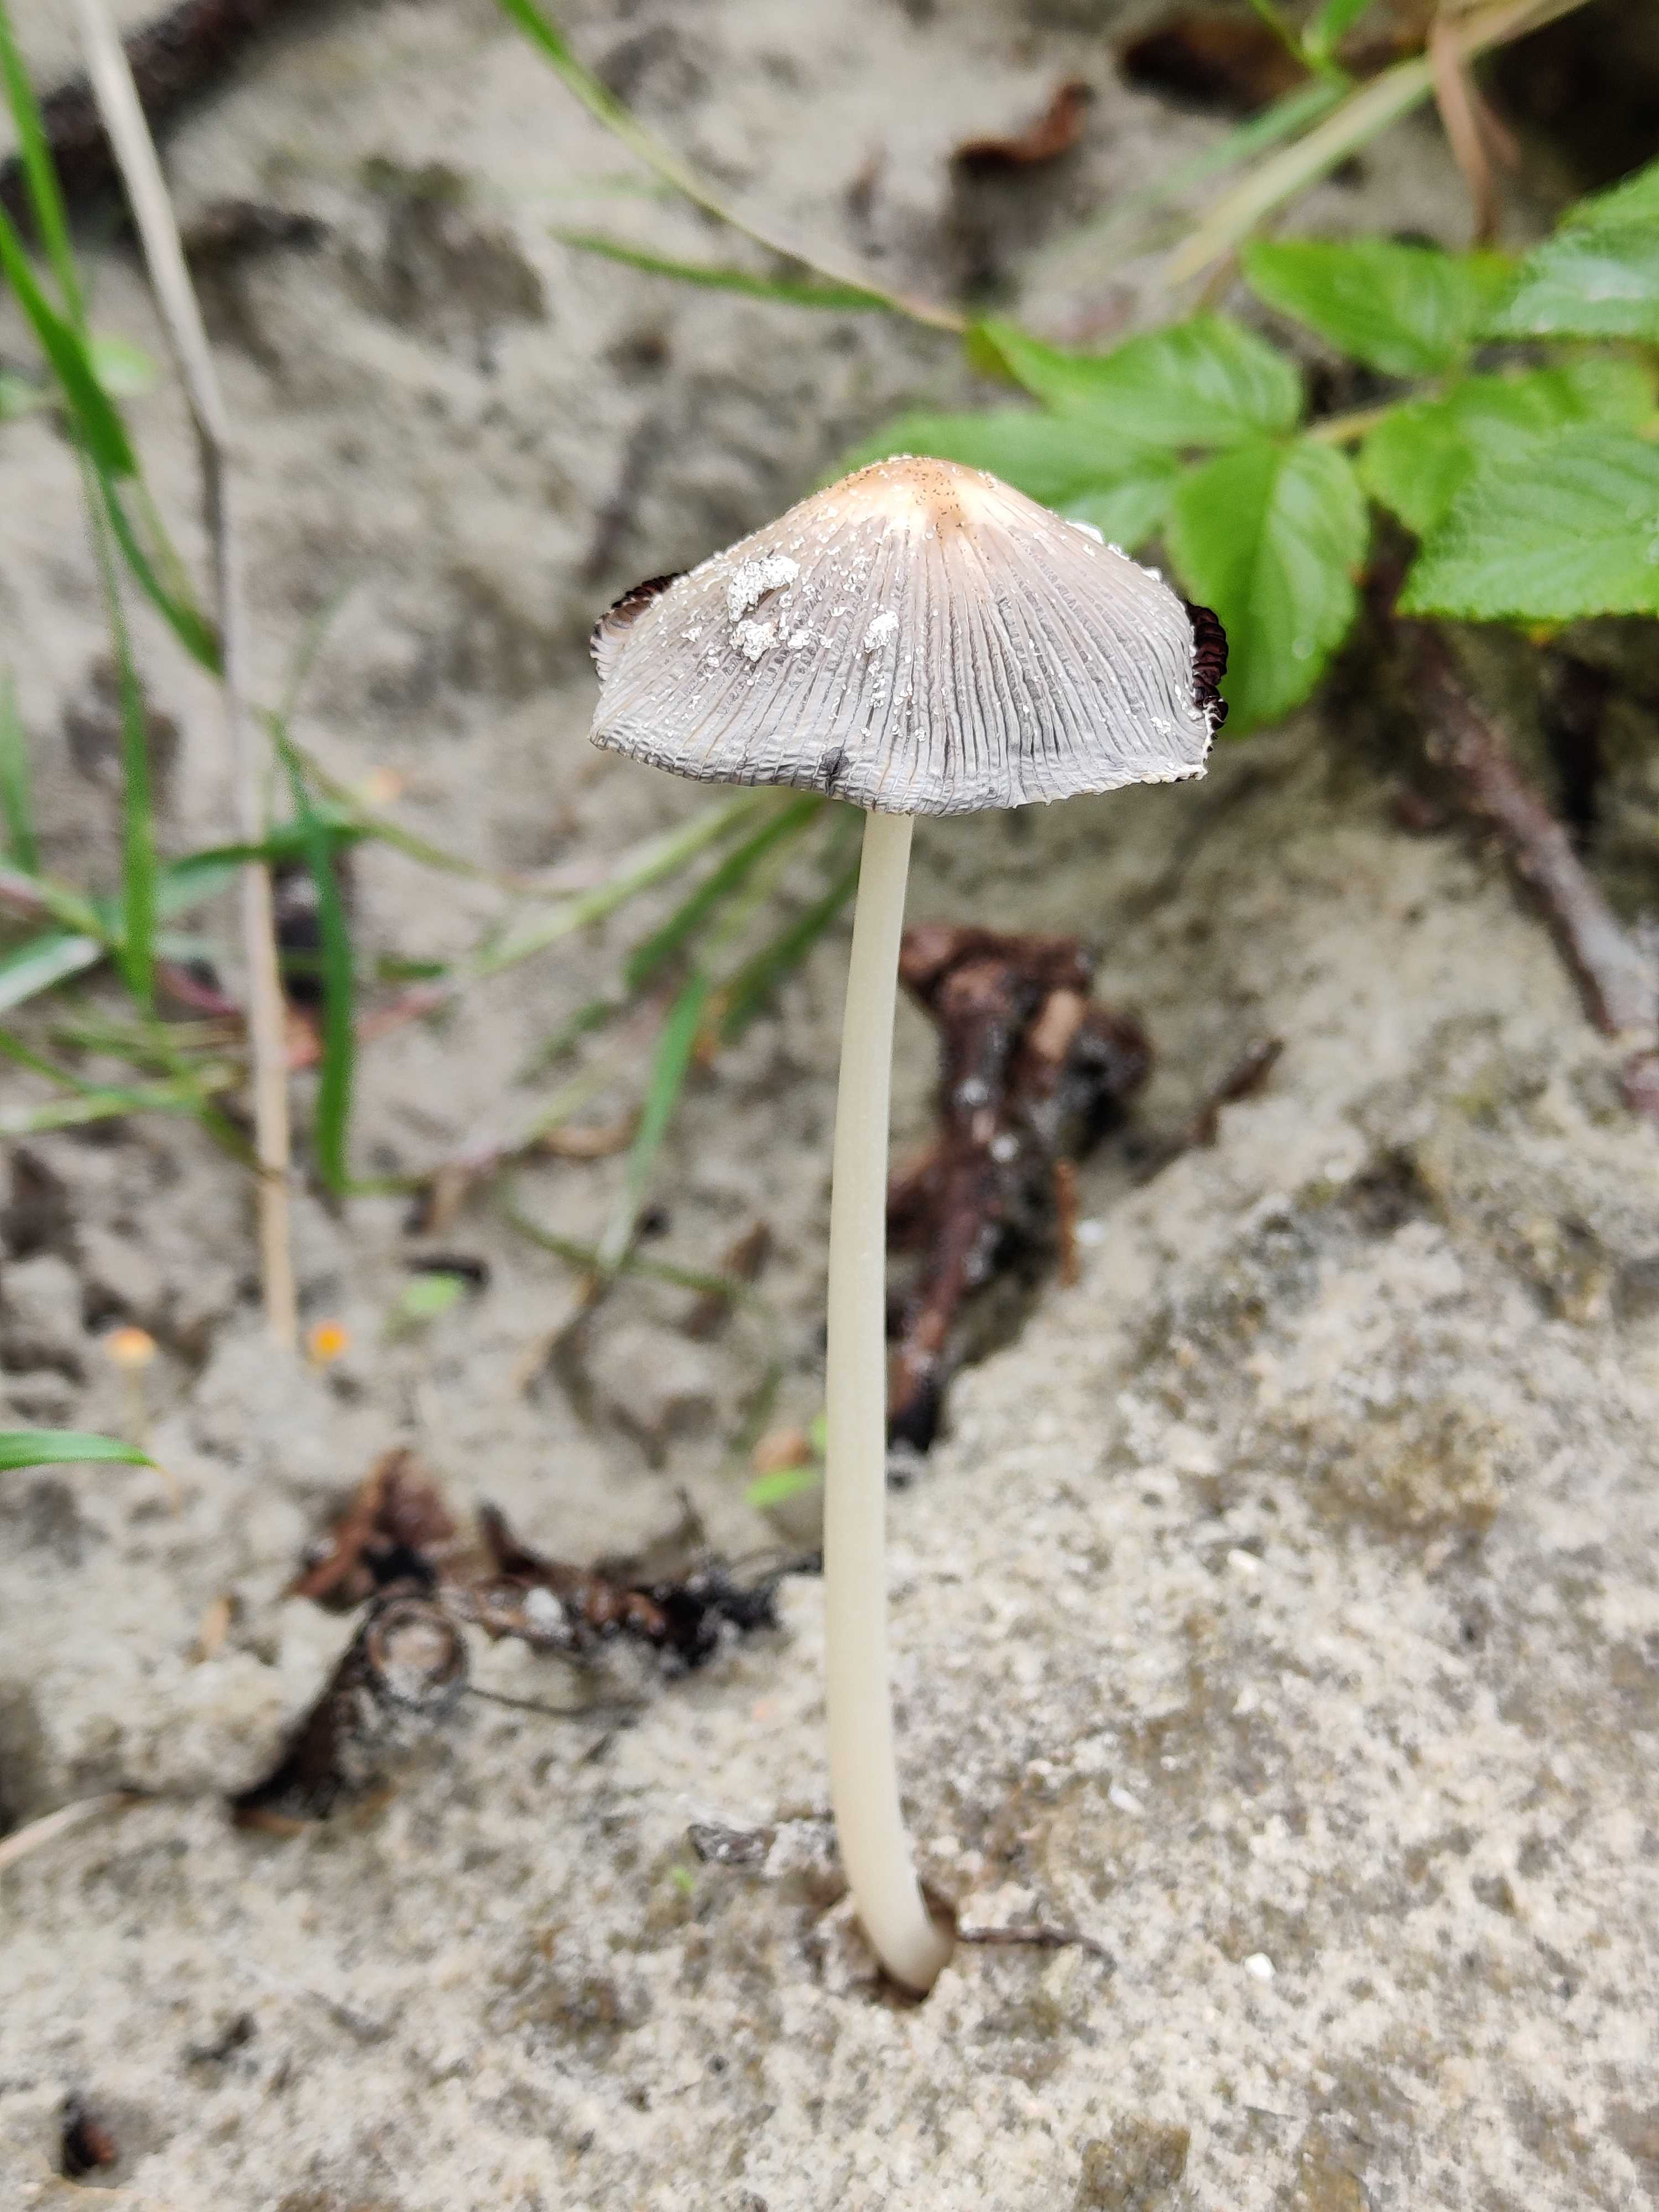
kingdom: Fungi
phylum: Basidiomycota
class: Agaricomycetes
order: Agaricales
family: Psathyrellaceae
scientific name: Psathyrellaceae
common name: mørkhatfamilien
